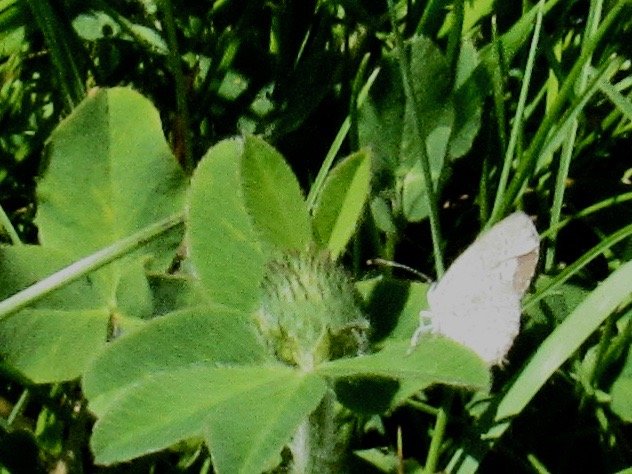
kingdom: Animalia
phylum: Arthropoda
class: Insecta
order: Lepidoptera
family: Lycaenidae
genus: Elkalyce
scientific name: Elkalyce comyntas
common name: Eastern Tailed-Blue
